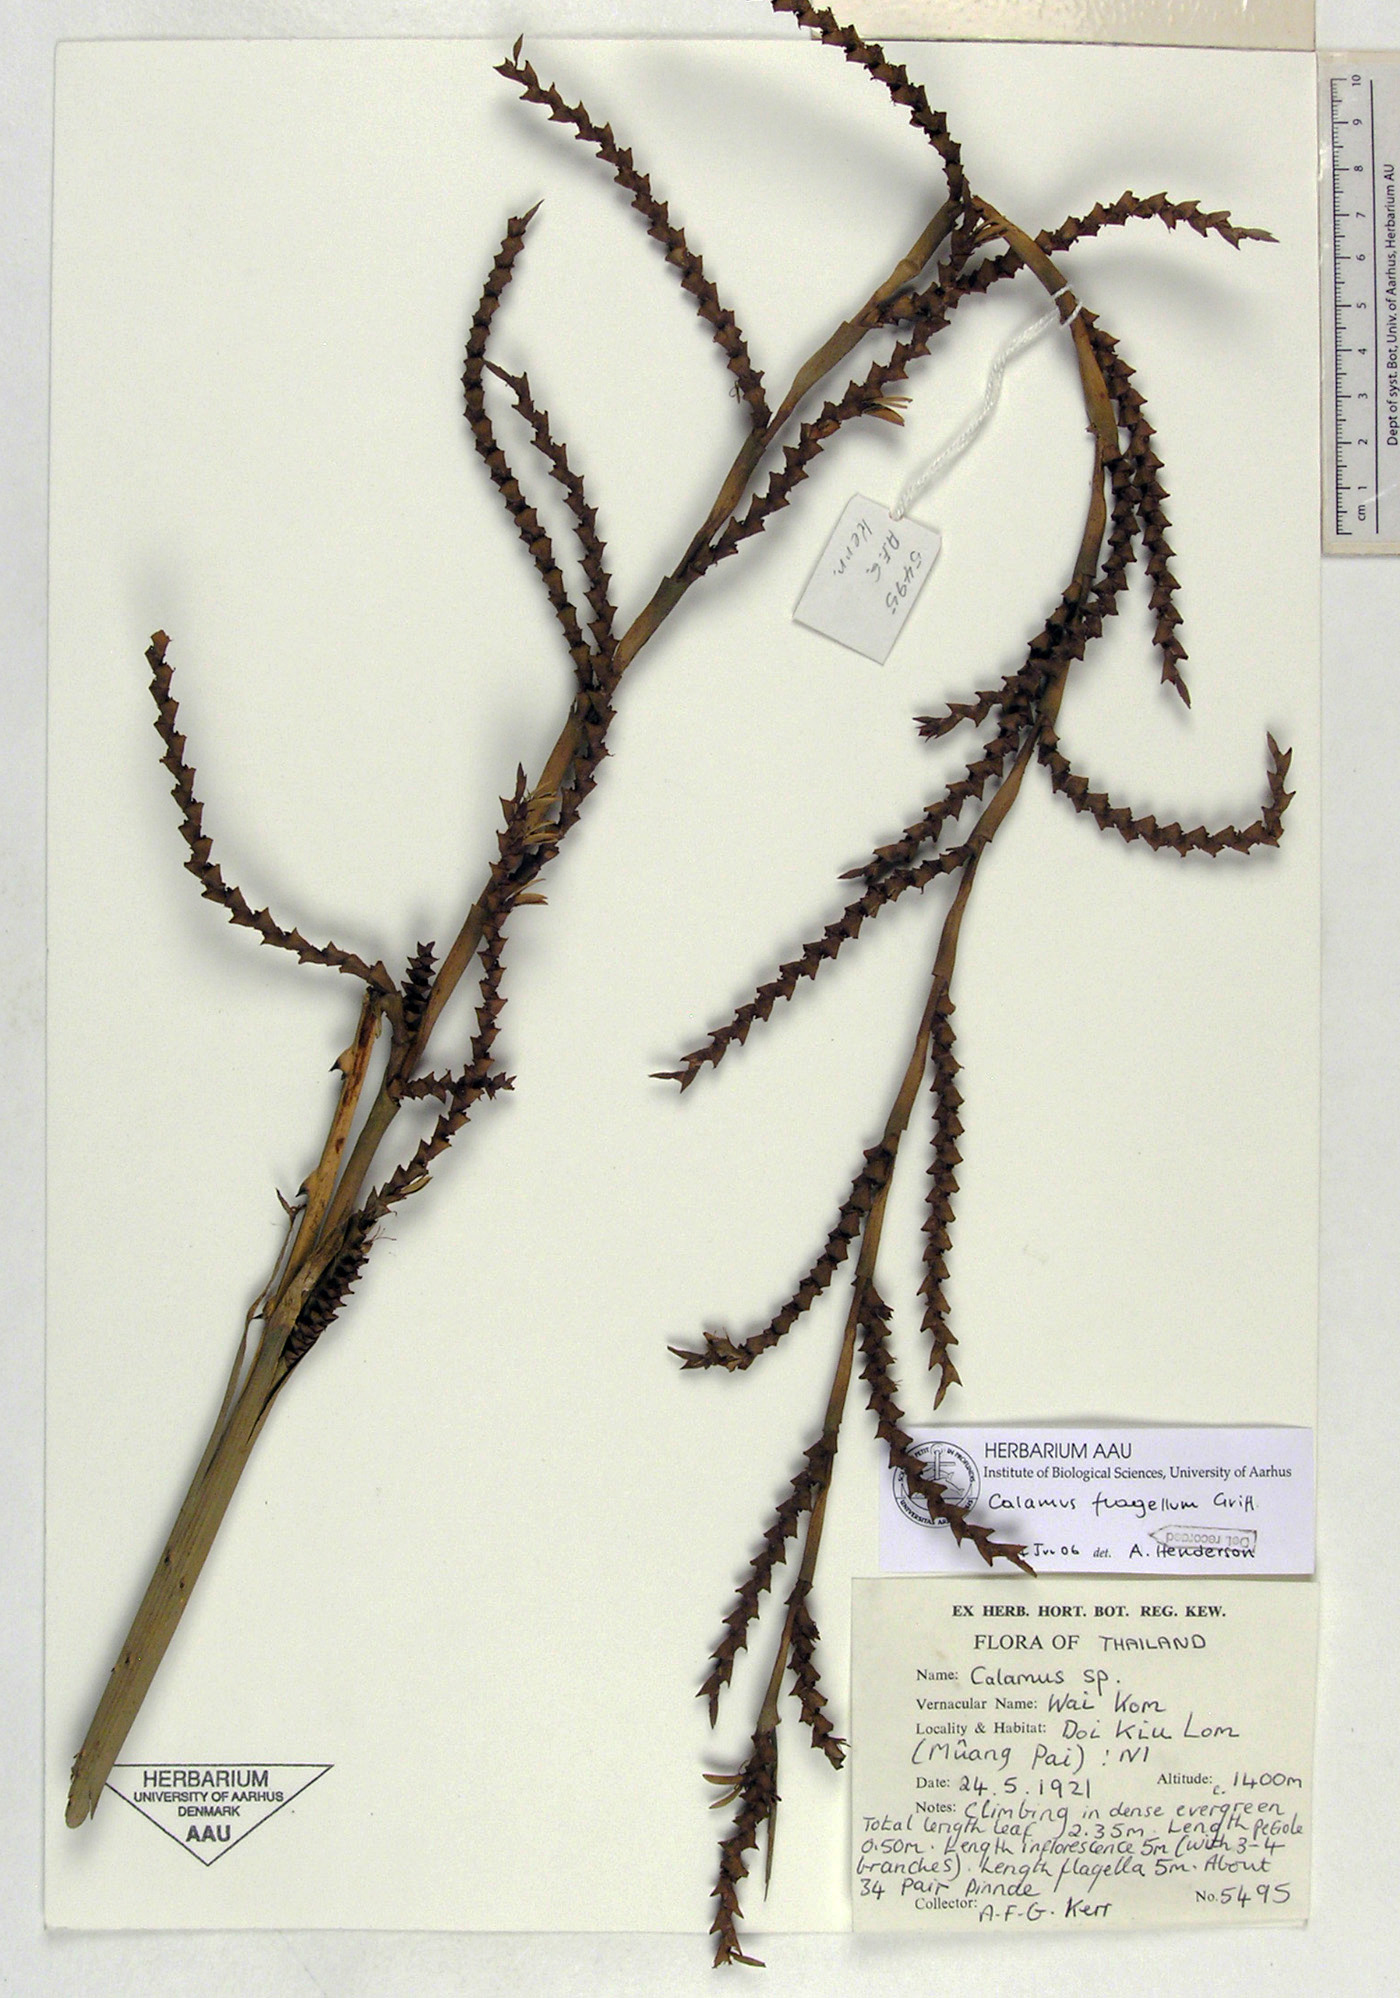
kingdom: Plantae
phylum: Tracheophyta
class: Liliopsida
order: Arecales
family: Arecaceae
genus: Calamus
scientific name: Calamus flagellum
